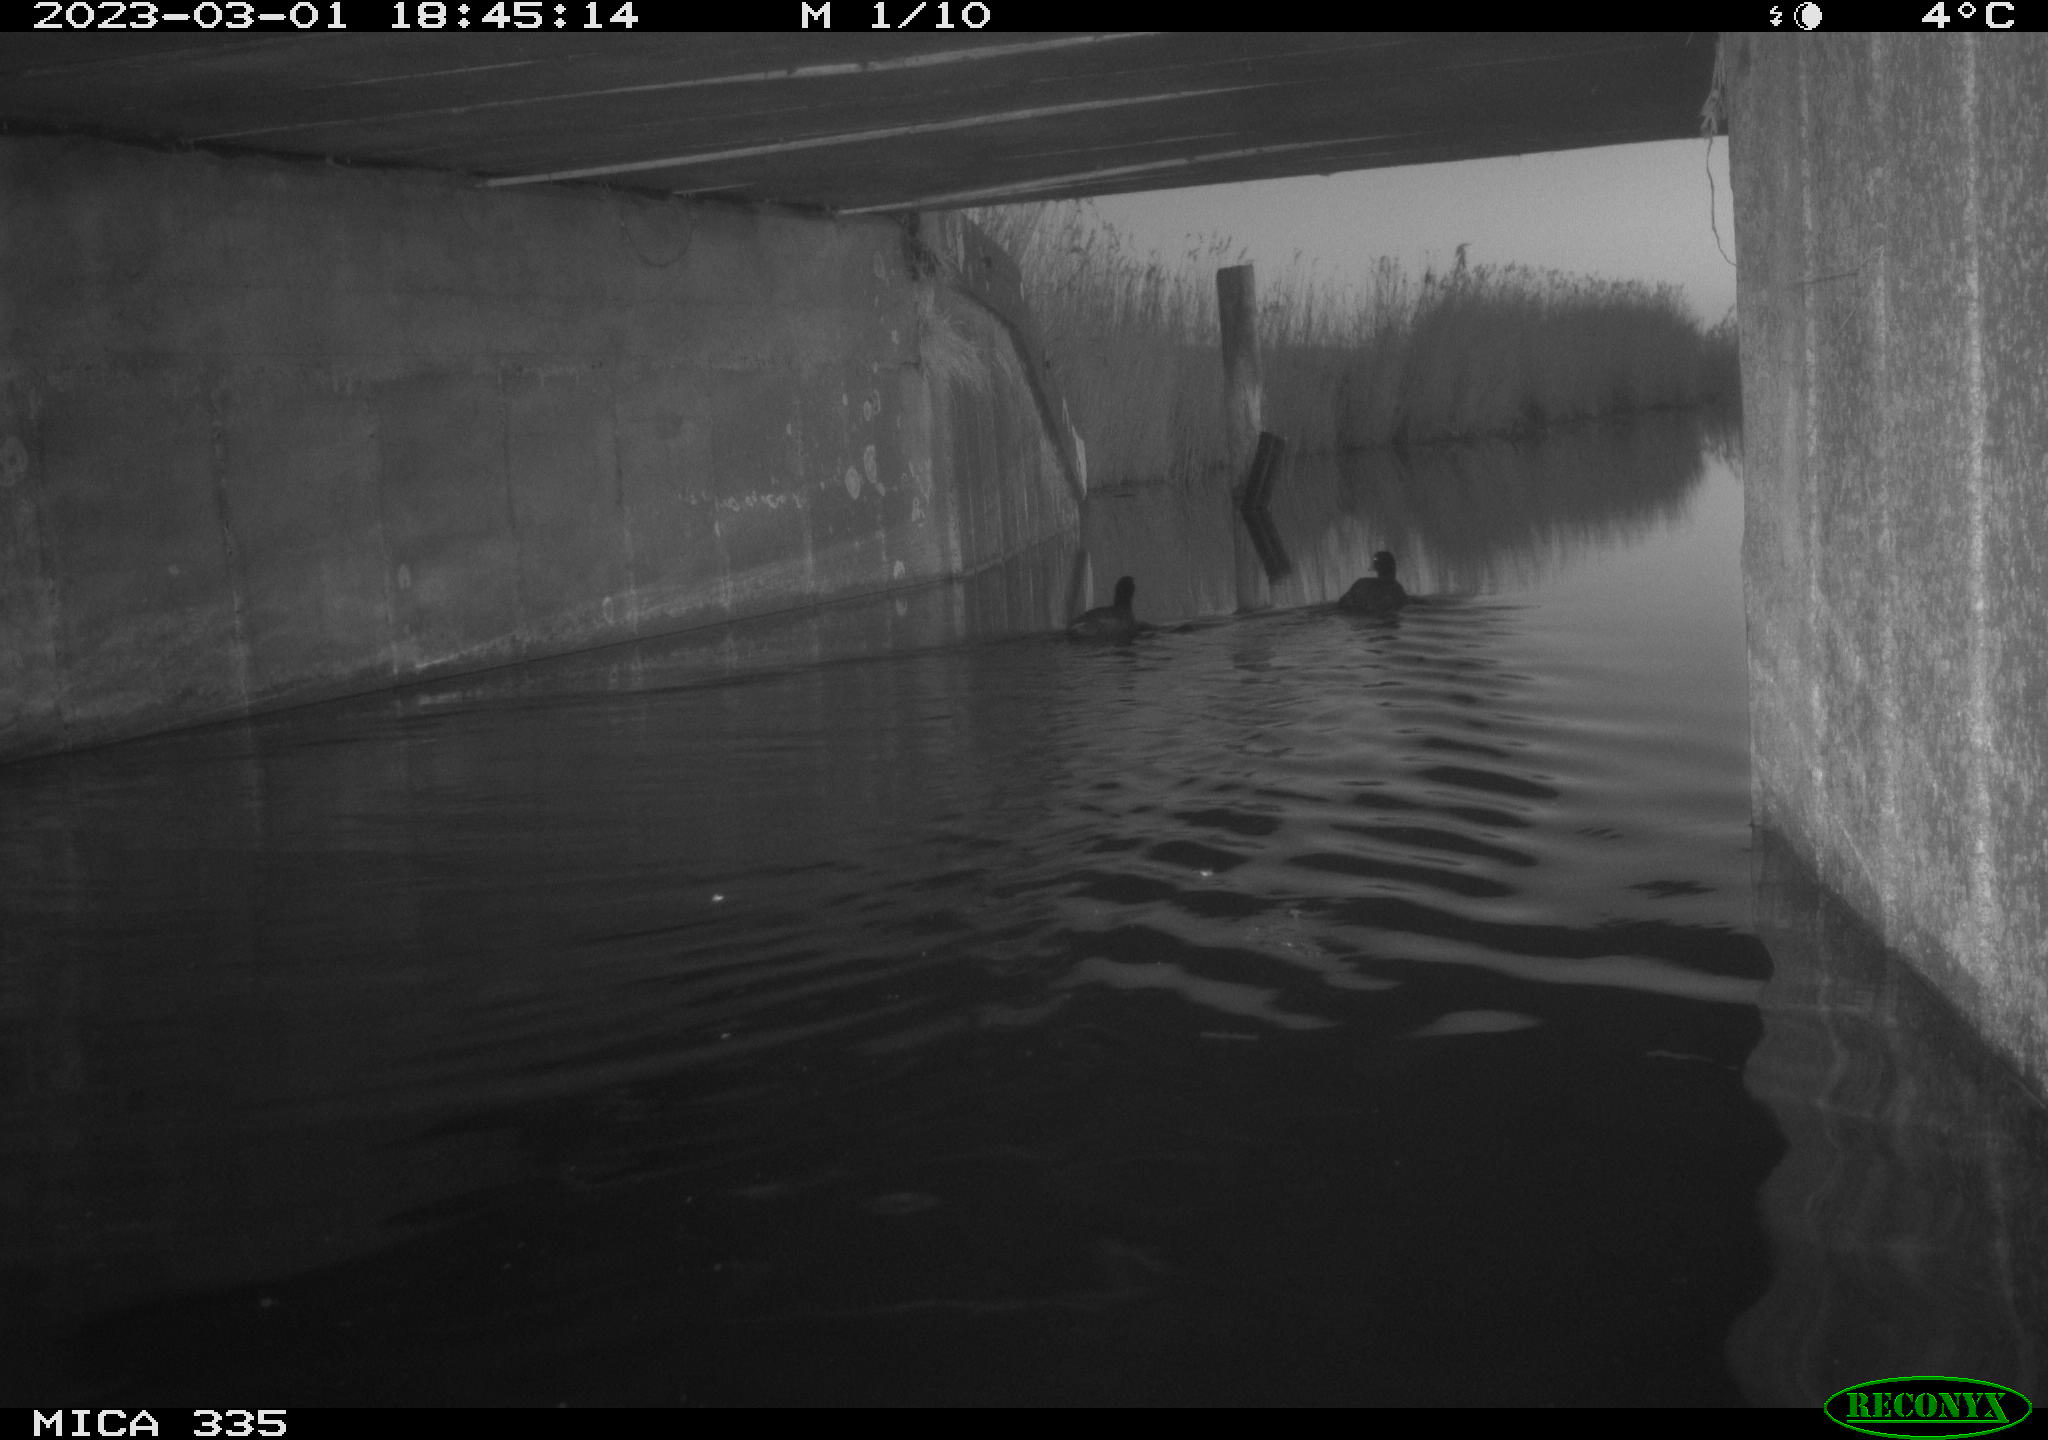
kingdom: Animalia
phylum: Chordata
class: Aves
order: Gruiformes
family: Rallidae
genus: Fulica
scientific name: Fulica atra
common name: Eurasian coot
